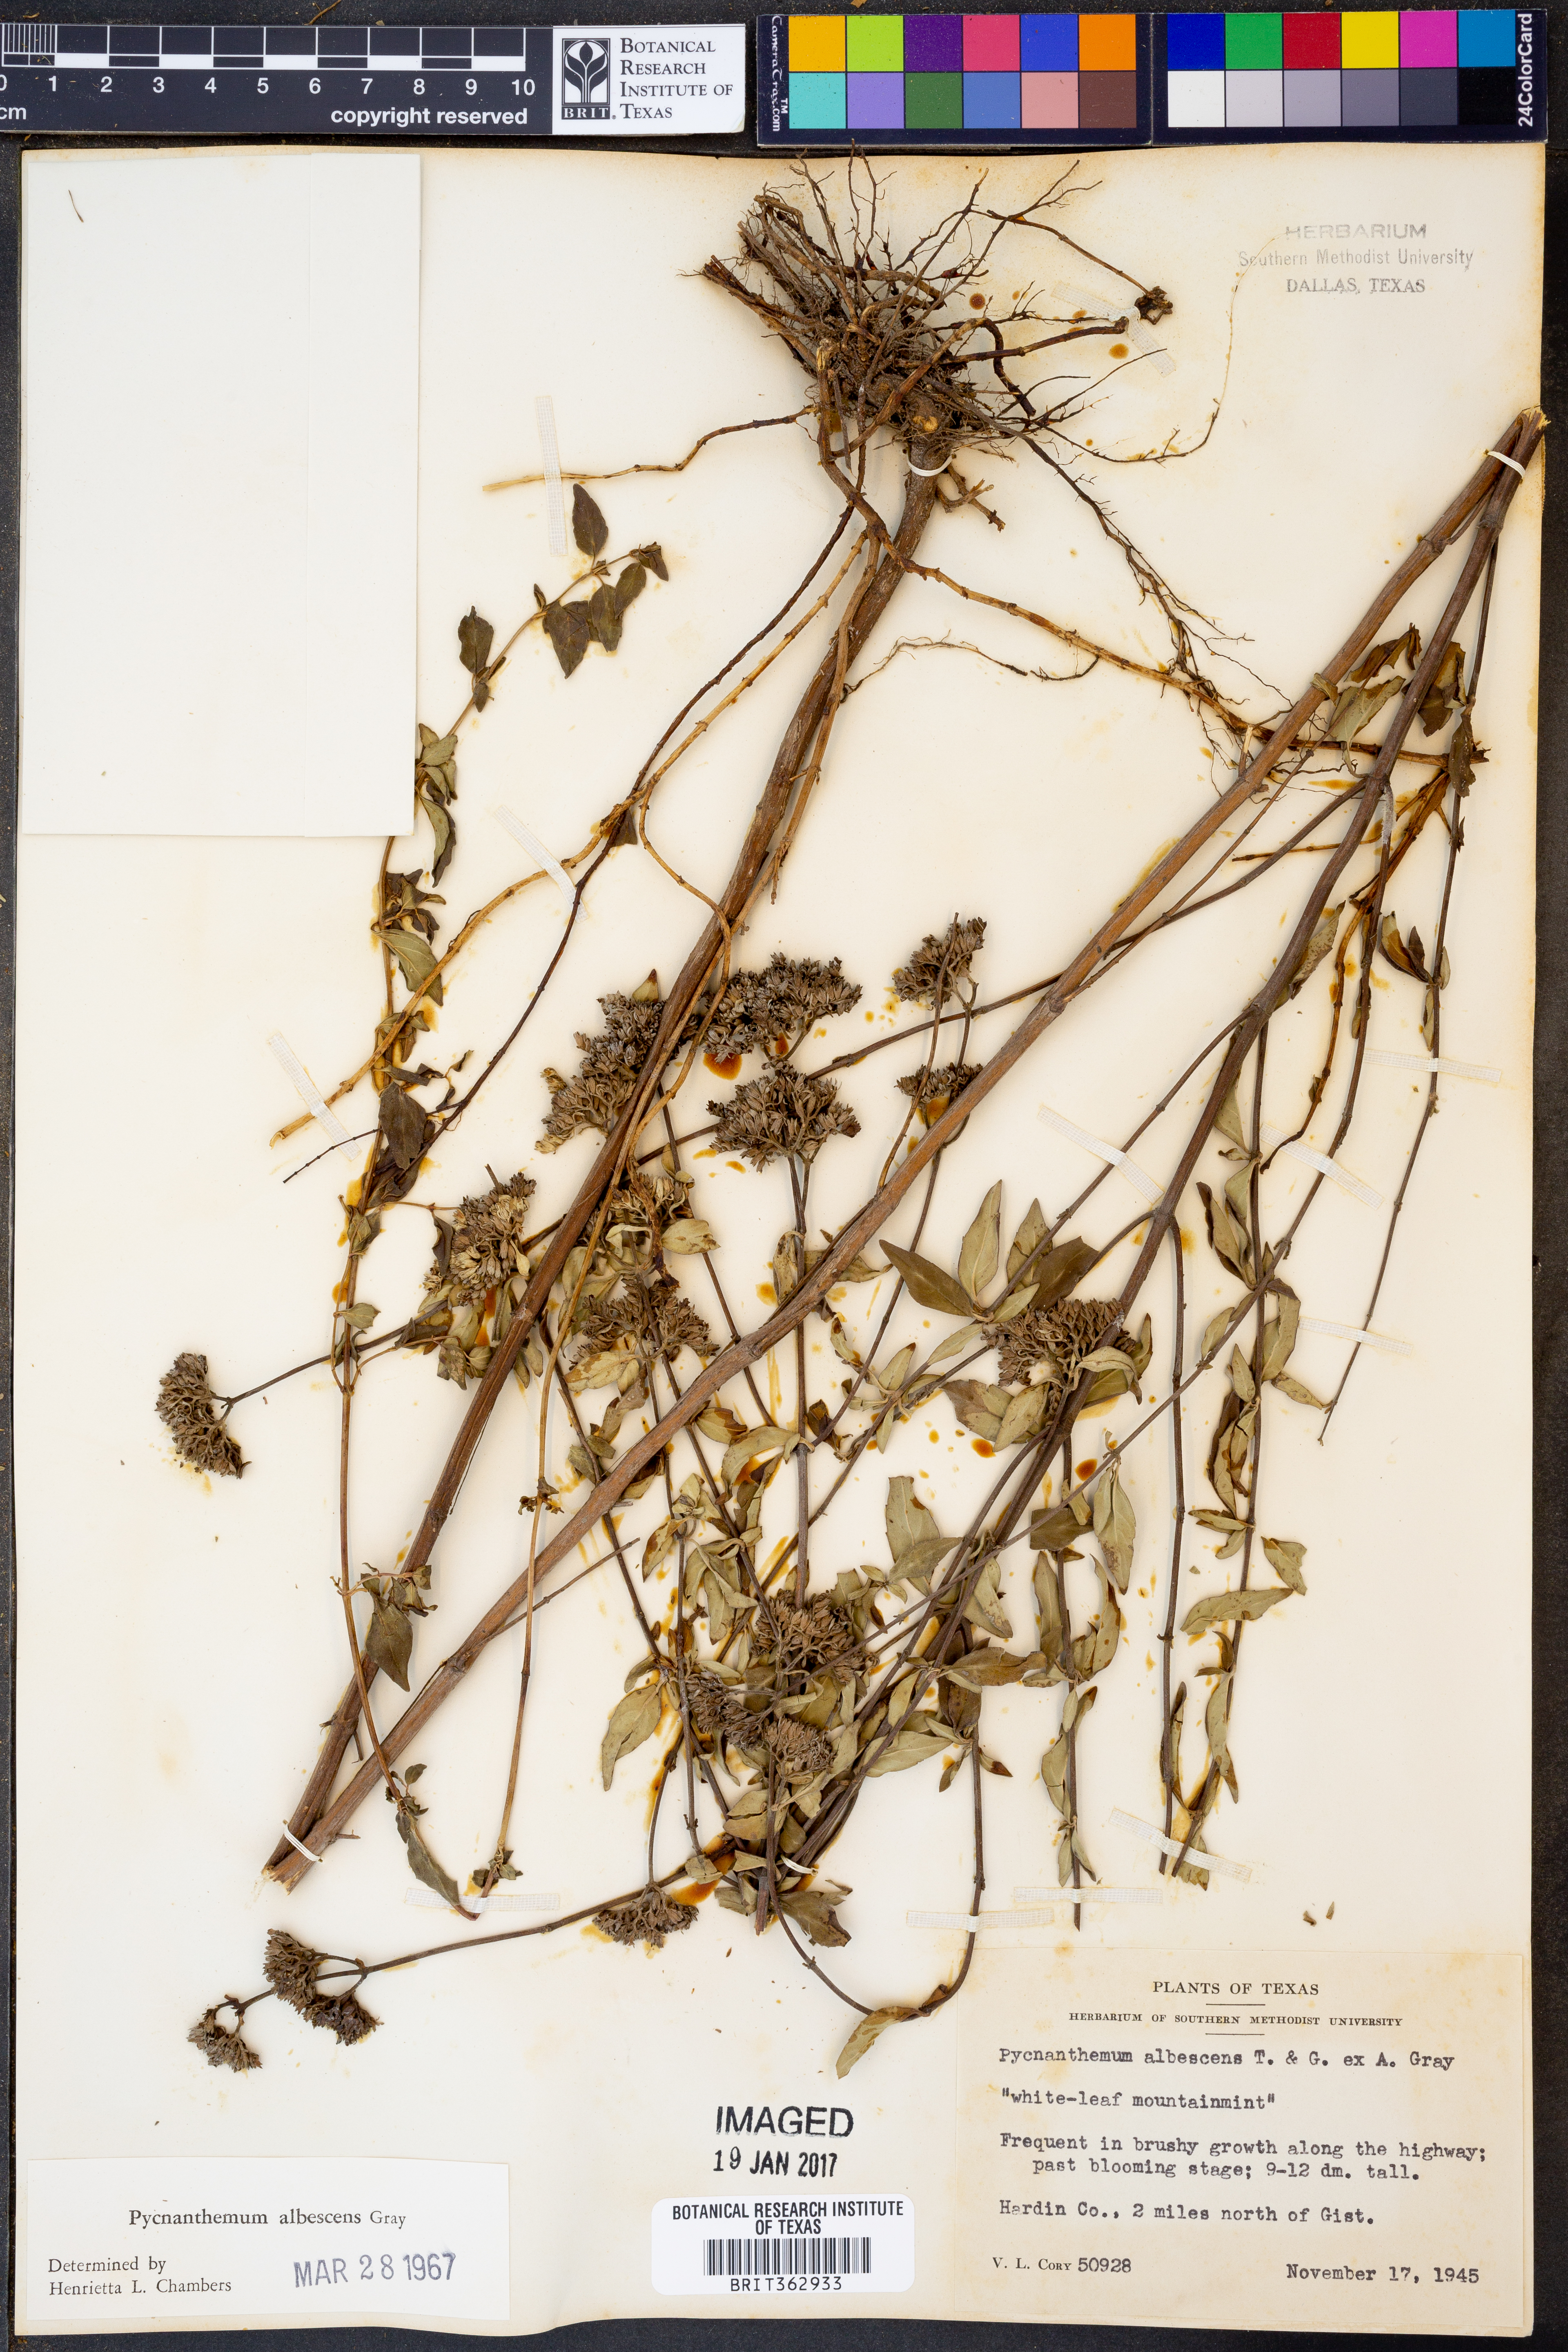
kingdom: Plantae
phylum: Tracheophyta
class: Magnoliopsida
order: Lamiales
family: Lamiaceae
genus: Pycnanthemum
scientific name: Pycnanthemum albescens
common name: White-leaf mountain-mint
